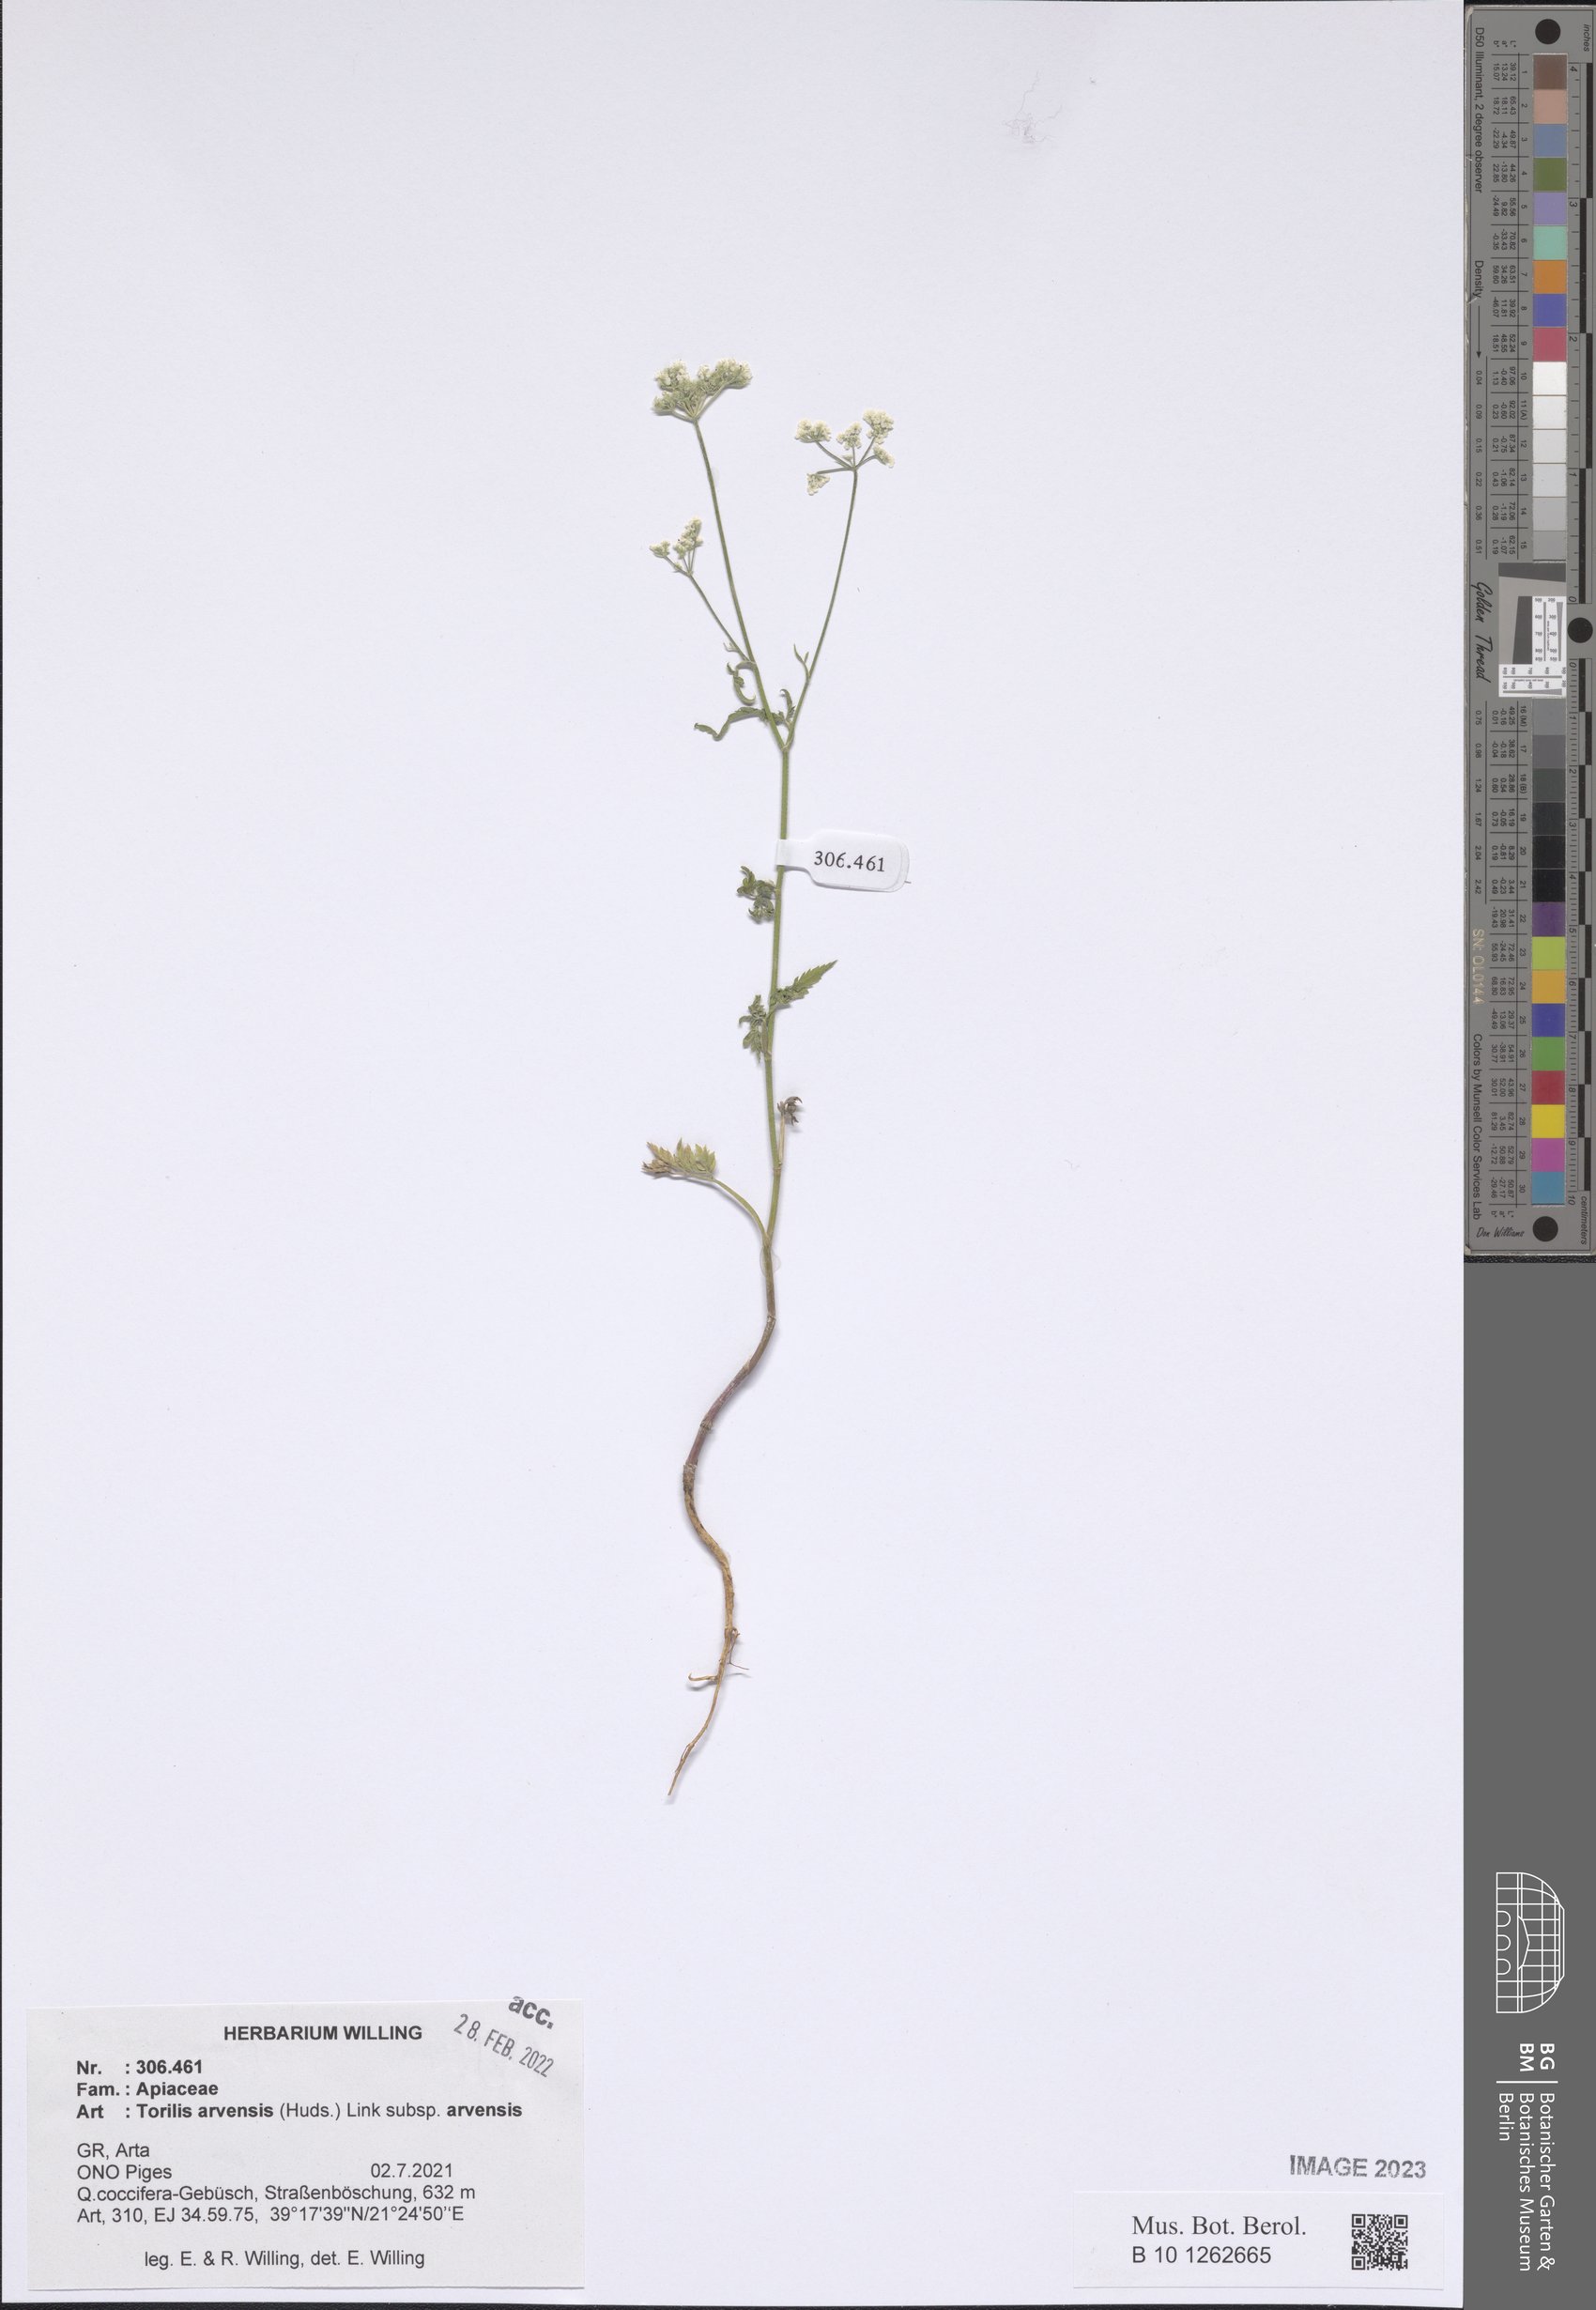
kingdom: Plantae
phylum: Tracheophyta
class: Magnoliopsida
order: Apiales
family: Apiaceae
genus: Torilis
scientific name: Torilis arvensis
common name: Spreading hedge-parsley
